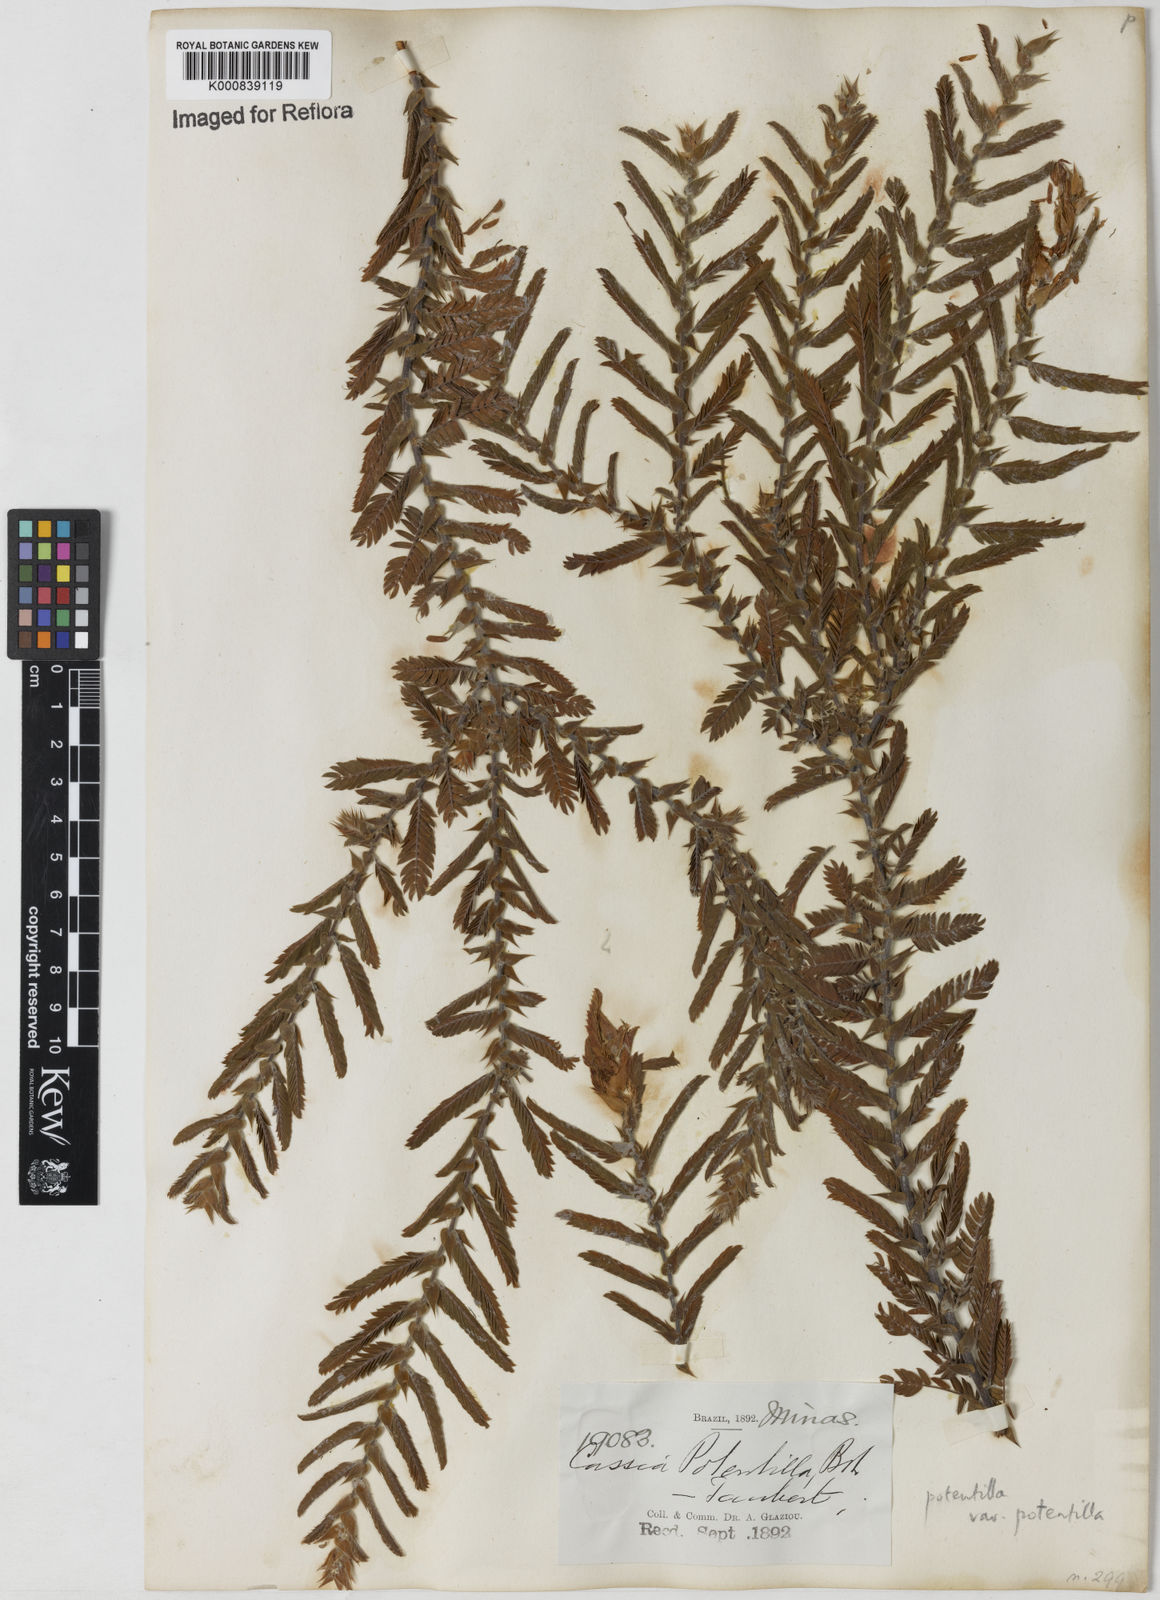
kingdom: Plantae
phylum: Tracheophyta
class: Magnoliopsida
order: Fabales
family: Fabaceae
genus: Chamaecrista
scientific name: Chamaecrista potentilla
